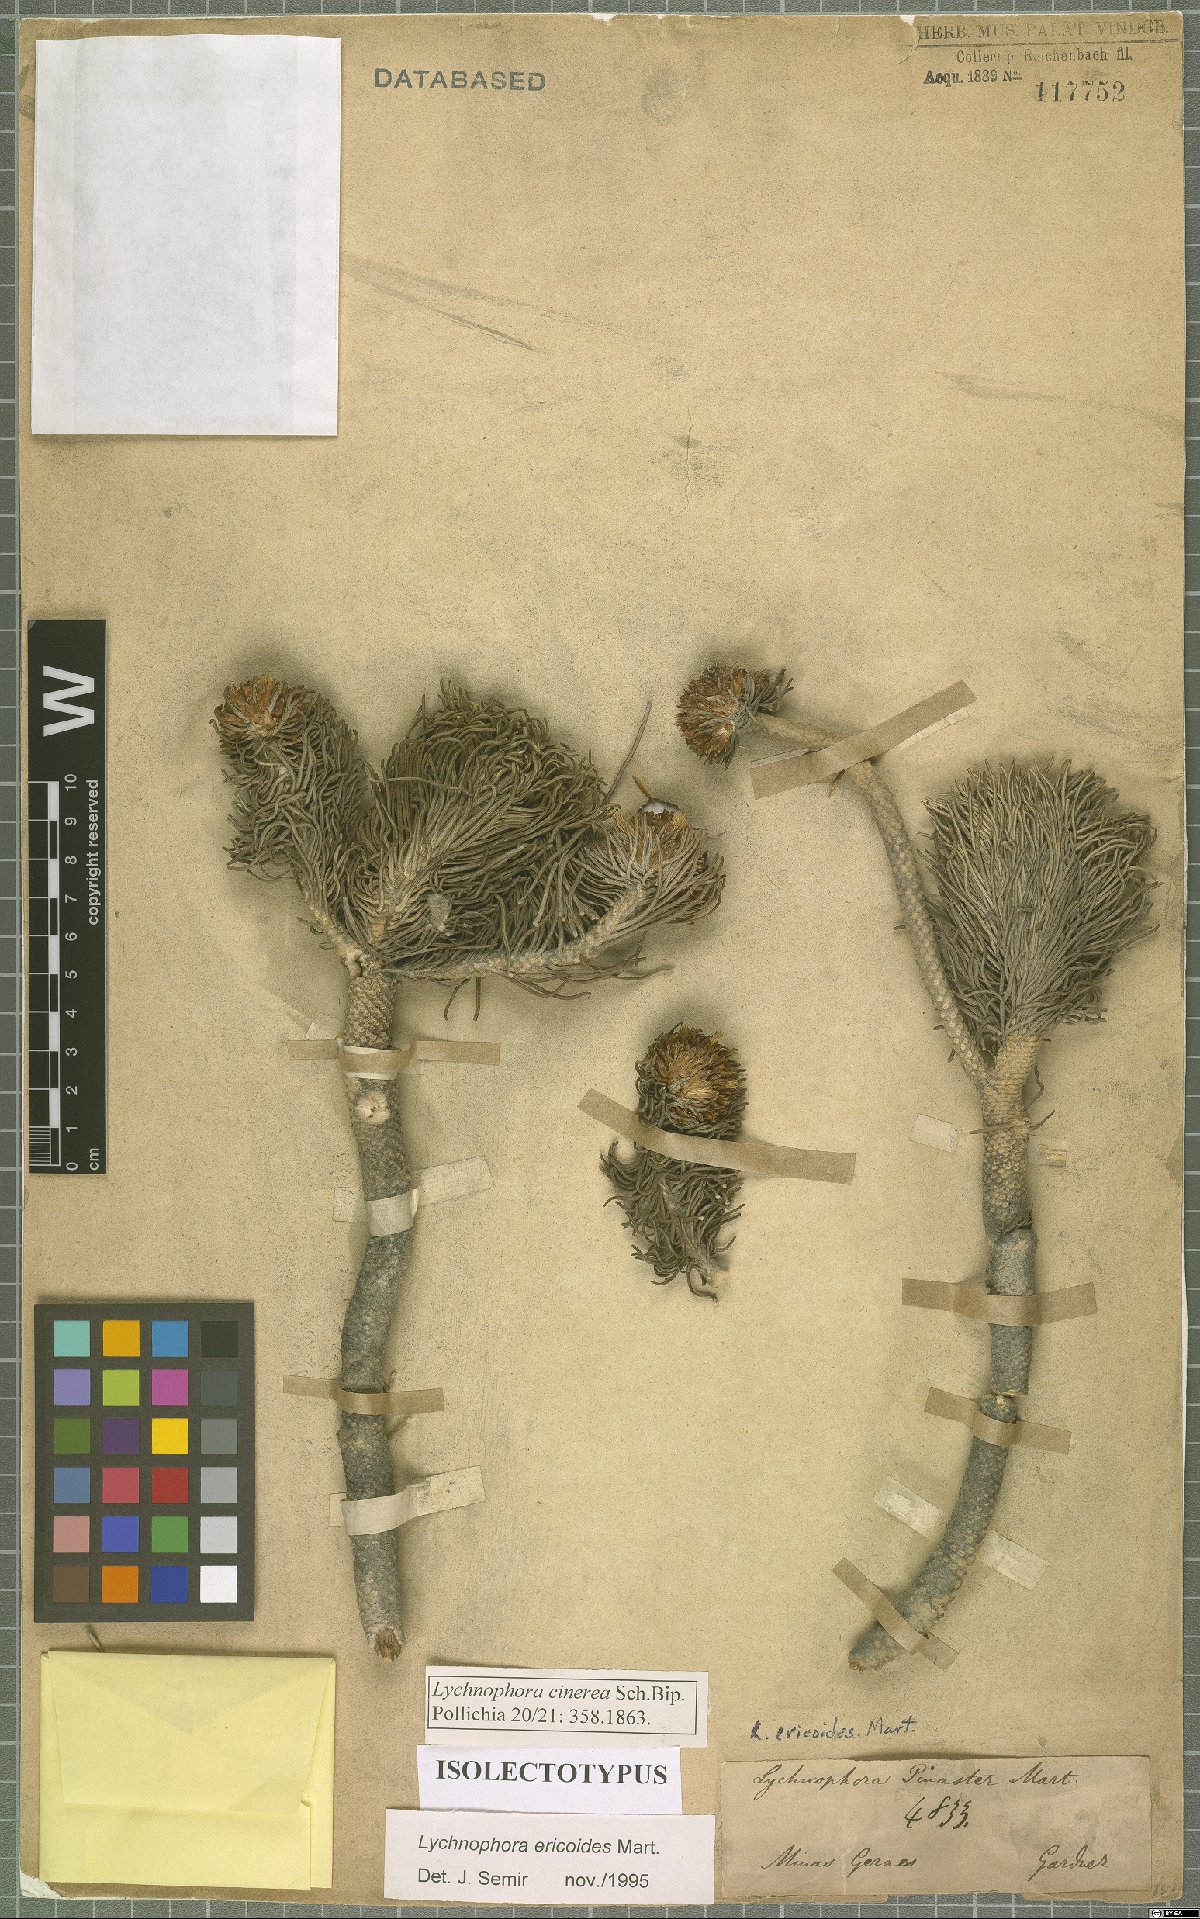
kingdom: Plantae
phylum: Tracheophyta
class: Magnoliopsida
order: Asterales
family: Asteraceae
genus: Lychnophora
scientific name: Lychnophora ericoides
